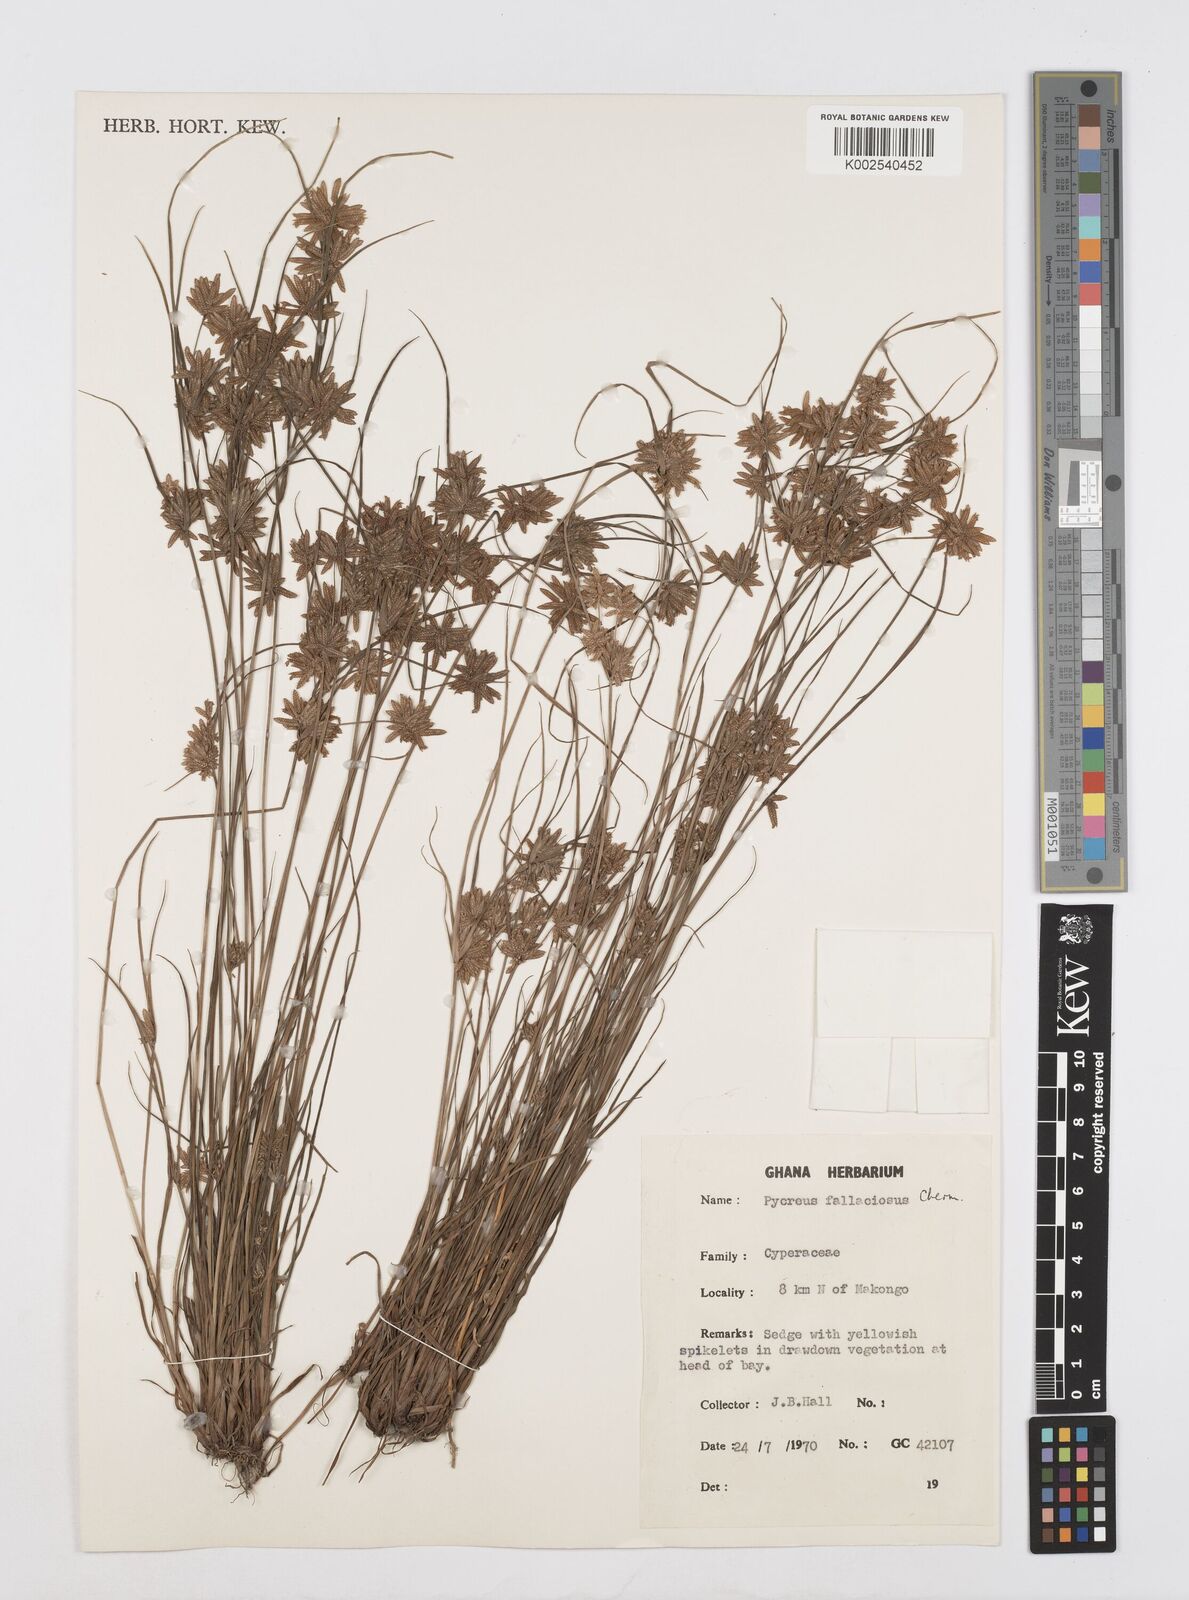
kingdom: Plantae
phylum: Tracheophyta
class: Liliopsida
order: Poales
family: Cyperaceae
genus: Cyperus
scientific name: Cyperus flavescens
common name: Yellow galingale
